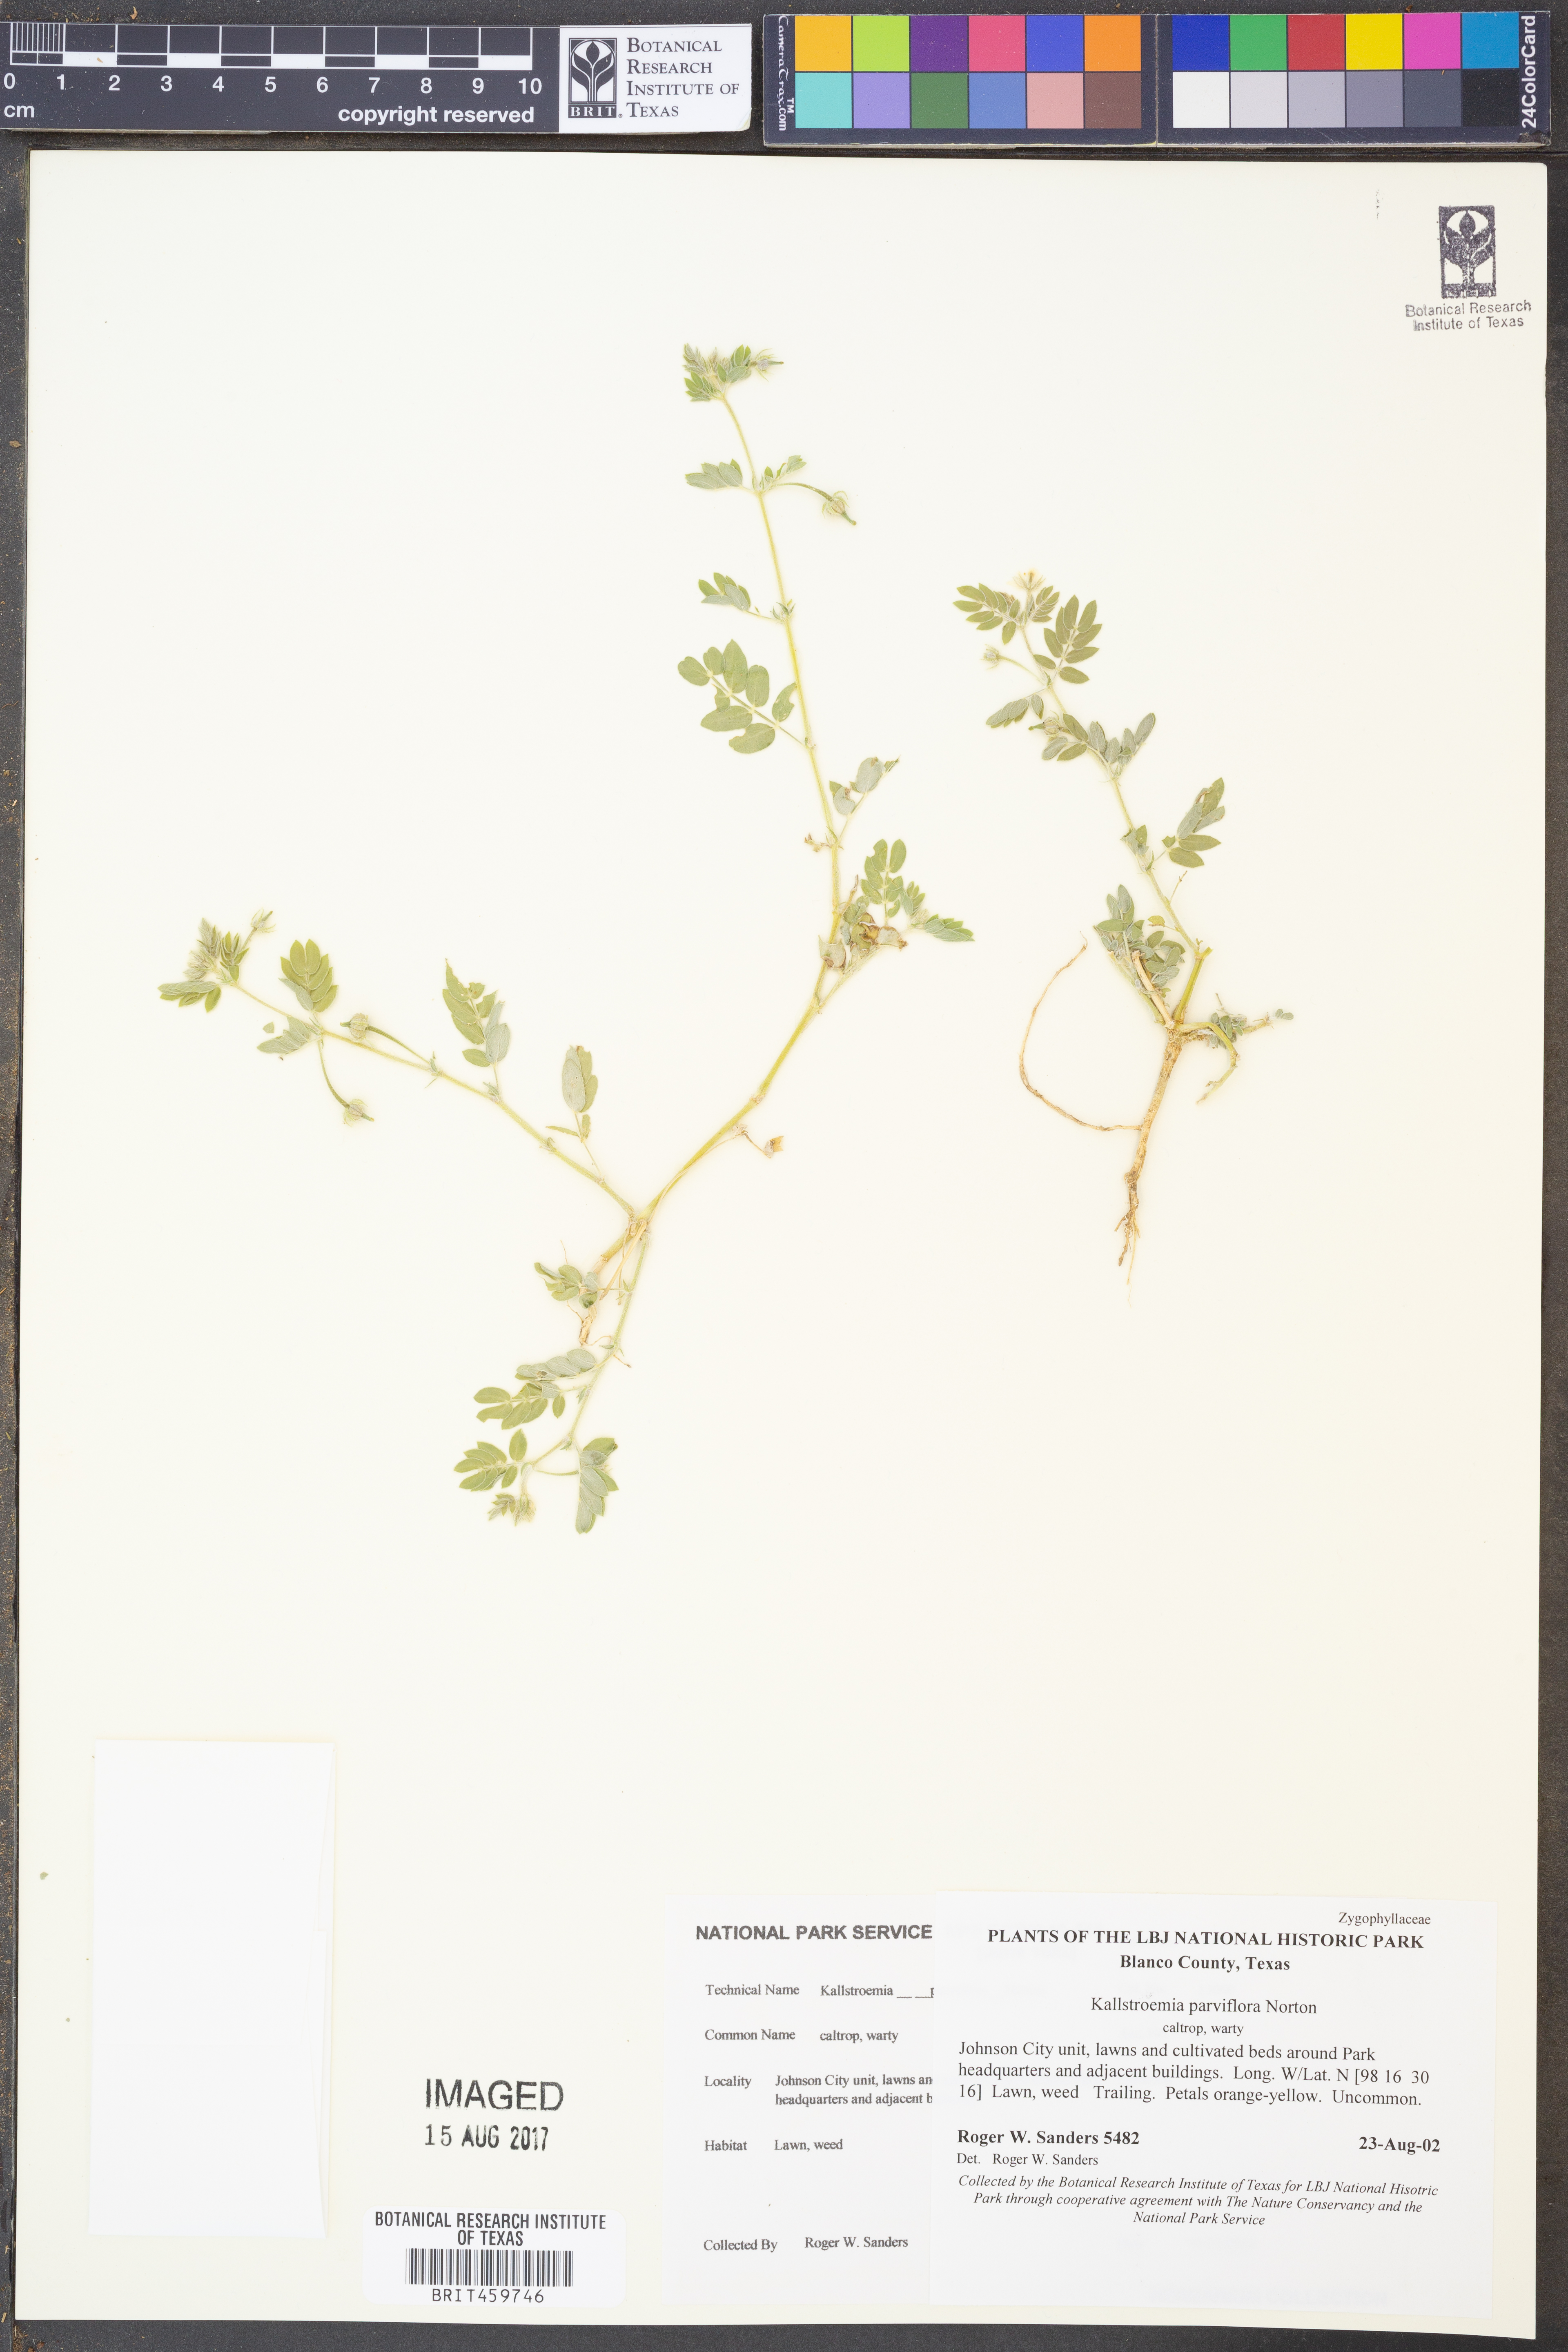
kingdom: Plantae
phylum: Tracheophyta
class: Magnoliopsida
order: Zygophyllales
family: Zygophyllaceae
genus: Kallstroemia
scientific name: Kallstroemia parviflora
